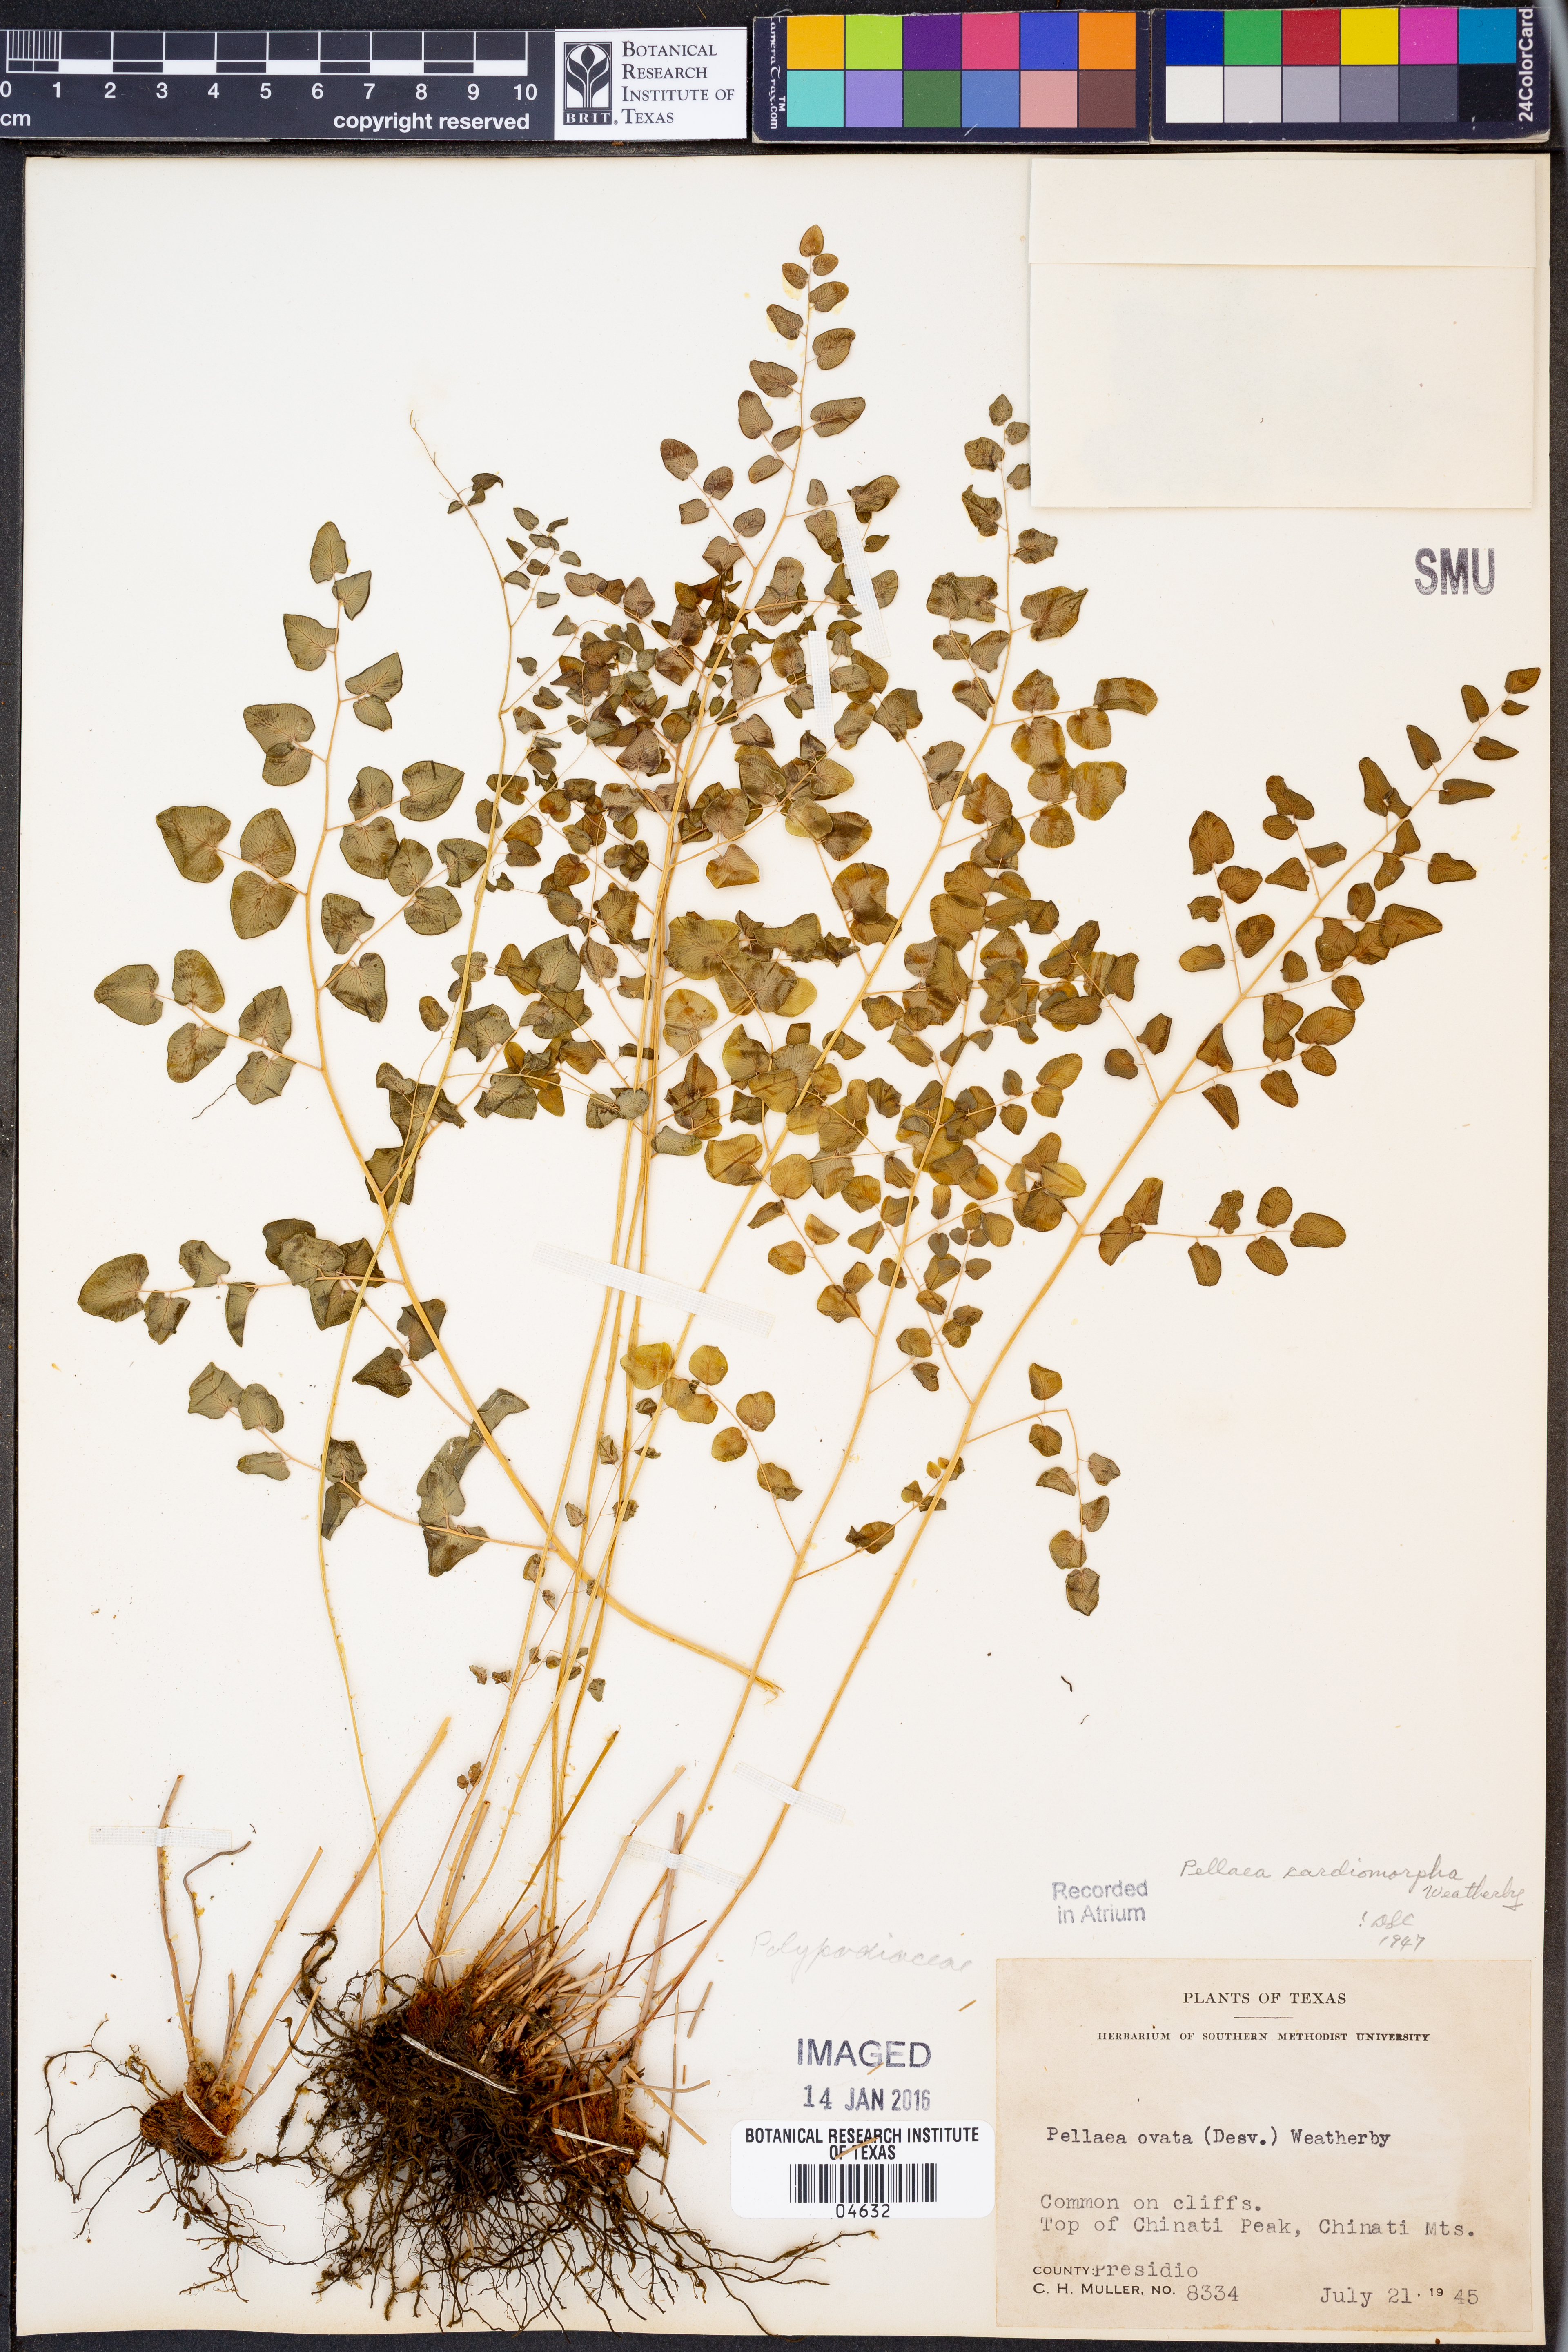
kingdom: Plantae
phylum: Tracheophyta
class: Polypodiopsida
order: Polypodiales
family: Pteridaceae
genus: Pellaea
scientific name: Pellaea cordifolia
